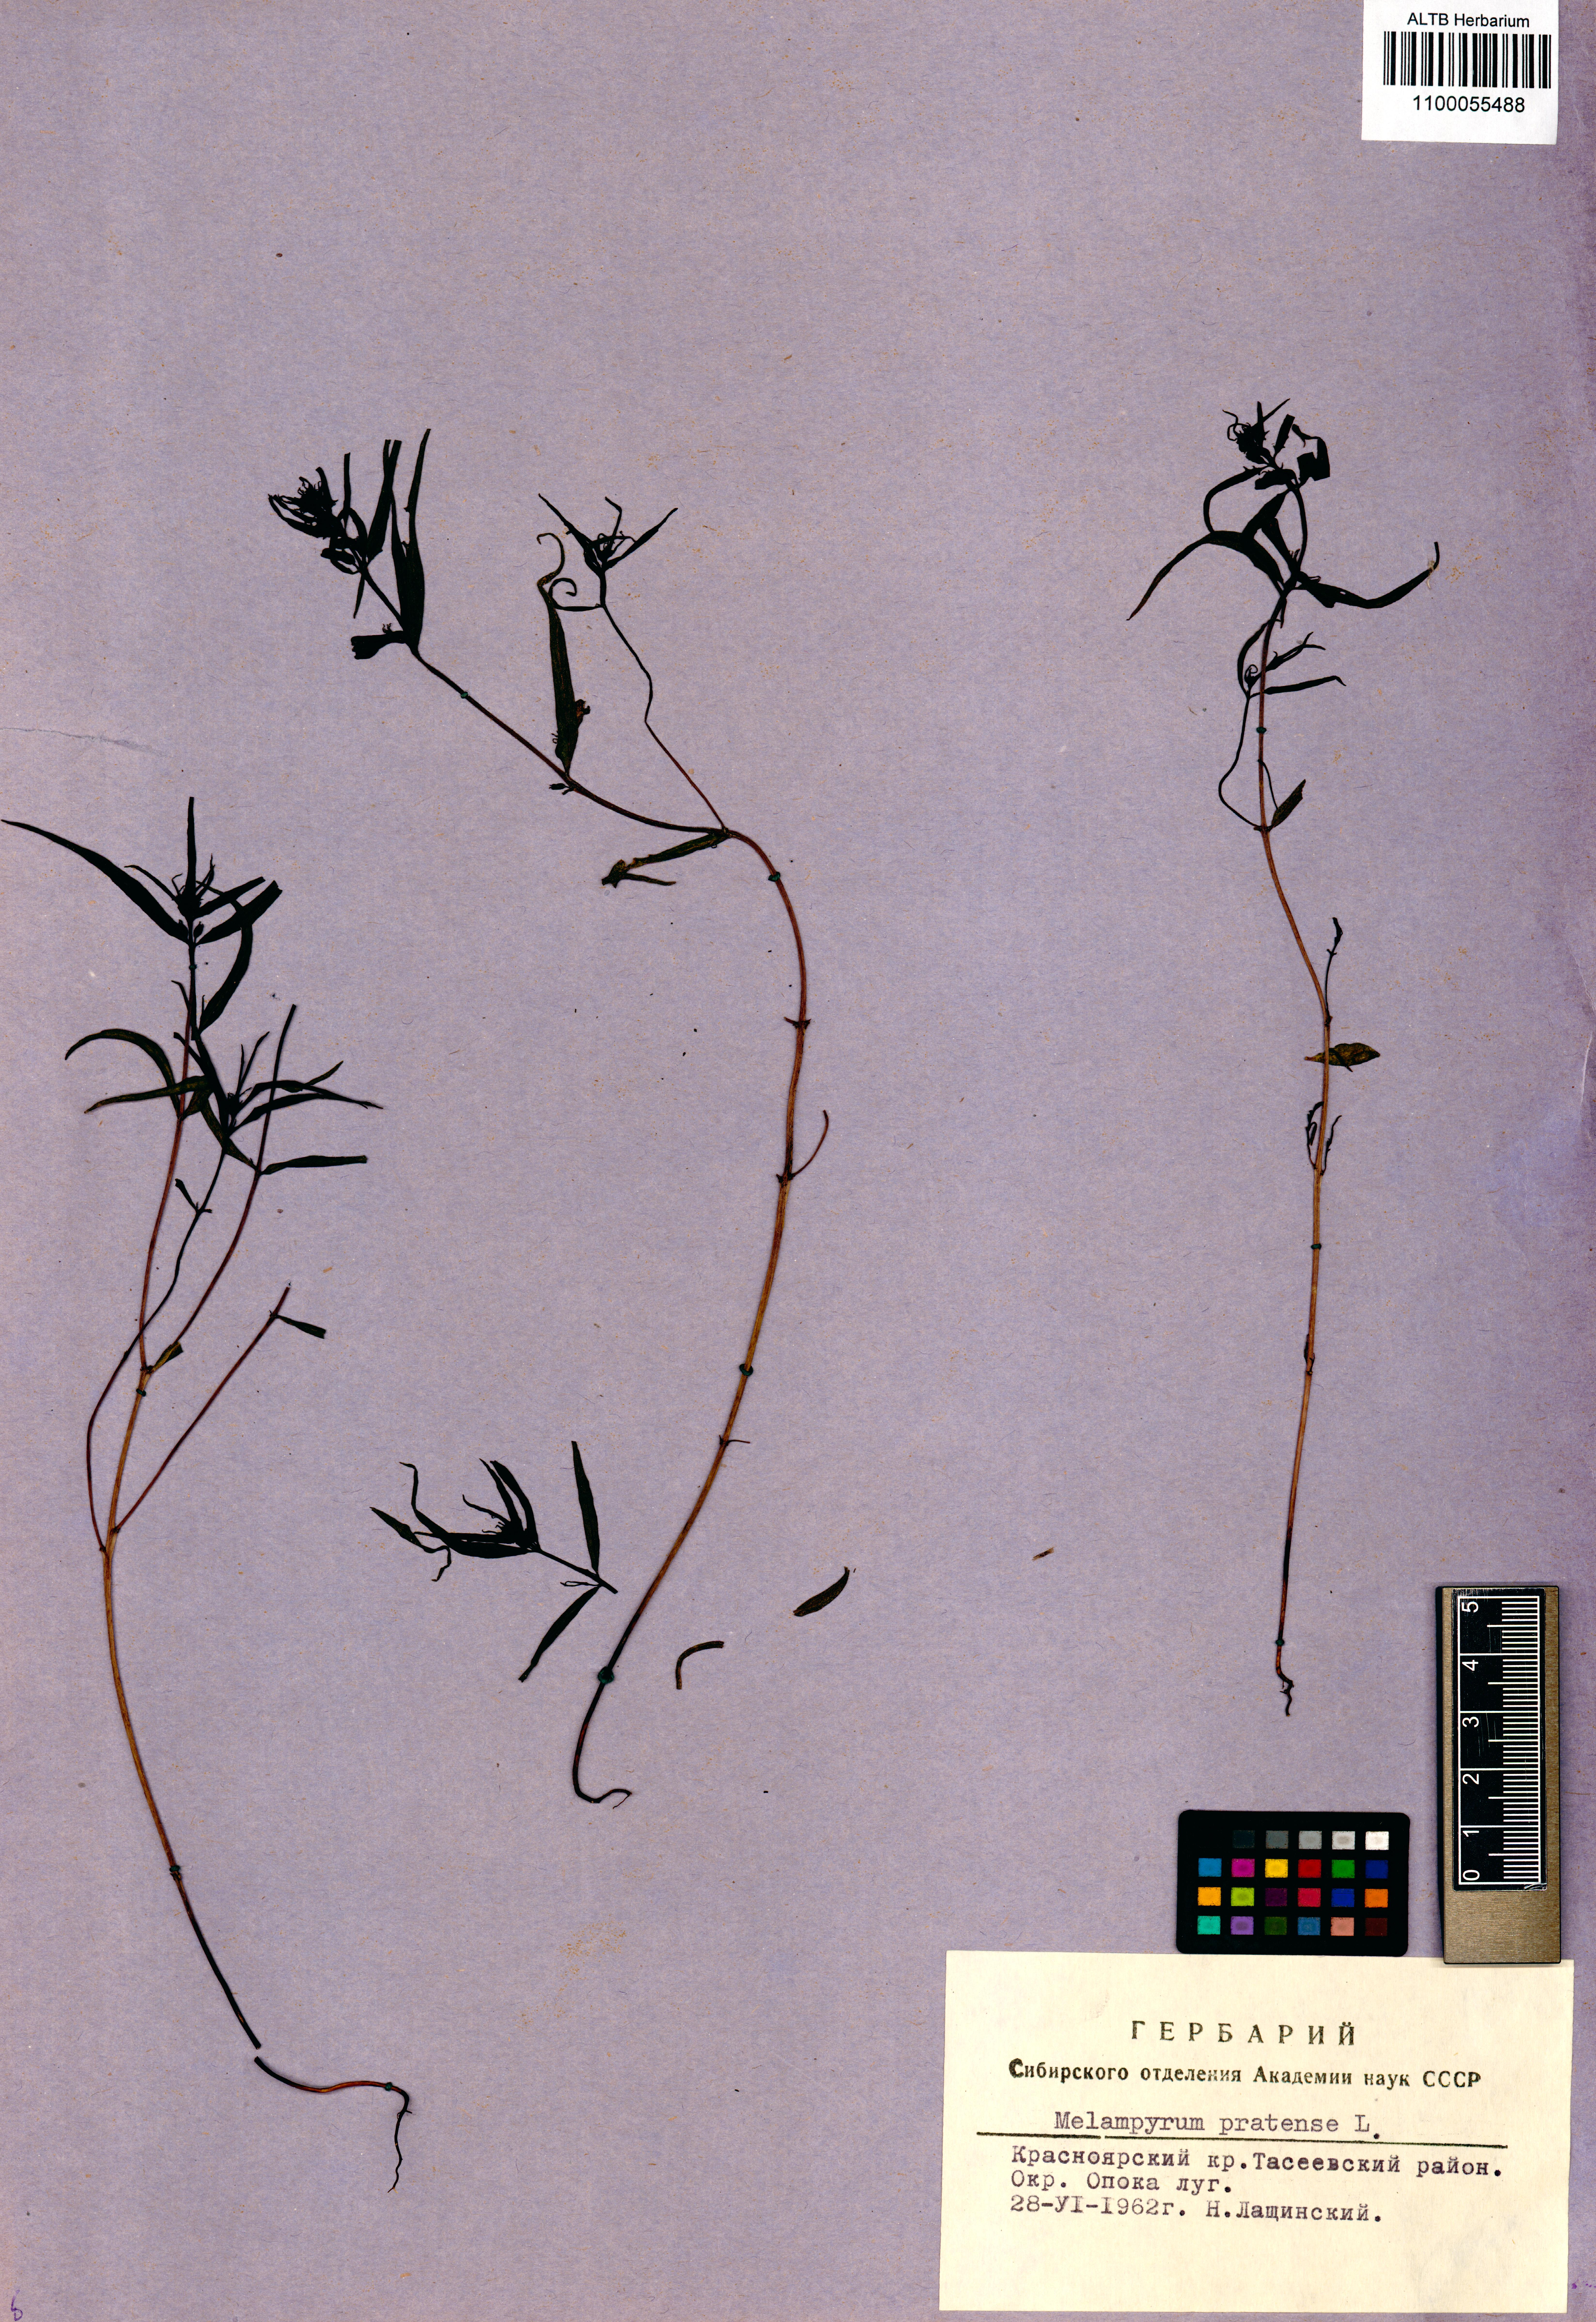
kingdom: Plantae
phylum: Tracheophyta
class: Magnoliopsida
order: Lamiales
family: Orobanchaceae
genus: Melampyrum
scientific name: Melampyrum pratense
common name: Common cow-wheat
